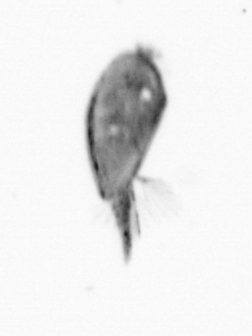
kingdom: Animalia
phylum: Arthropoda
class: Maxillopoda
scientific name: Maxillopoda
